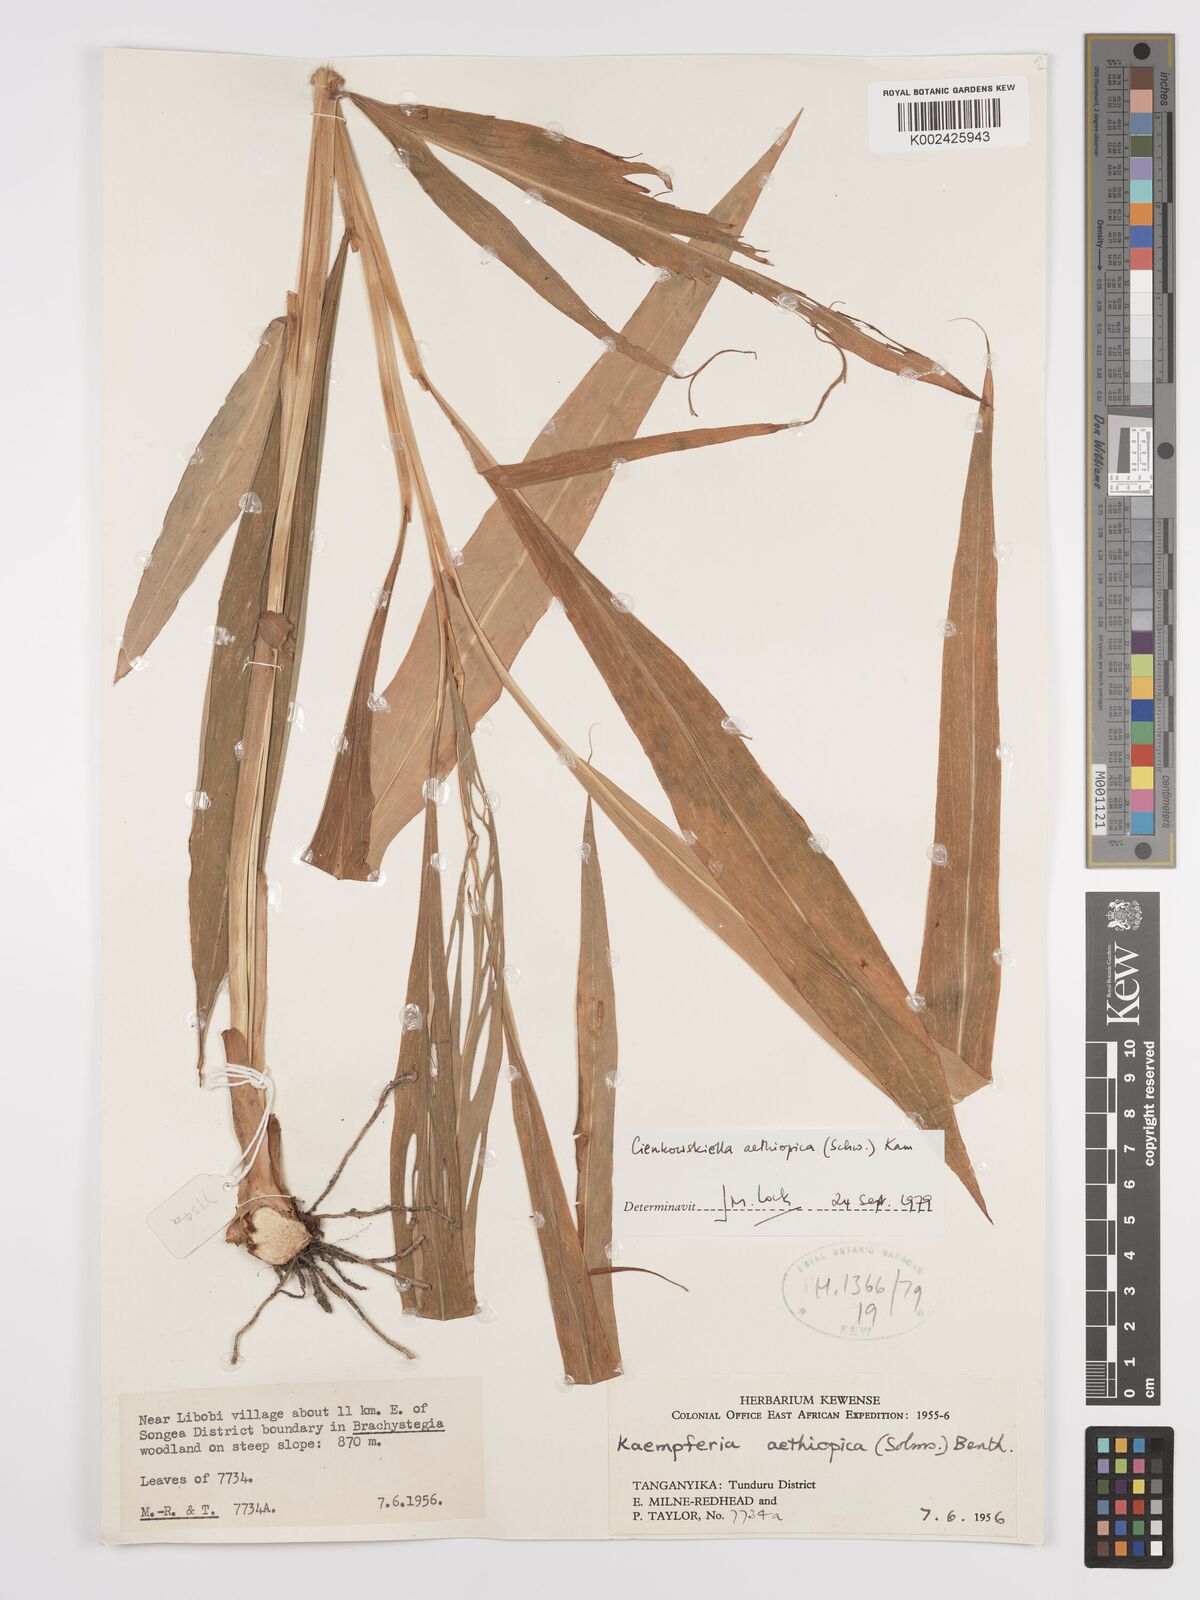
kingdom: Plantae
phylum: Tracheophyta
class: Liliopsida
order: Zingiberales
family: Zingiberaceae
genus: Siphonochilus
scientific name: Siphonochilus aethiopicus
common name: African-ginger
